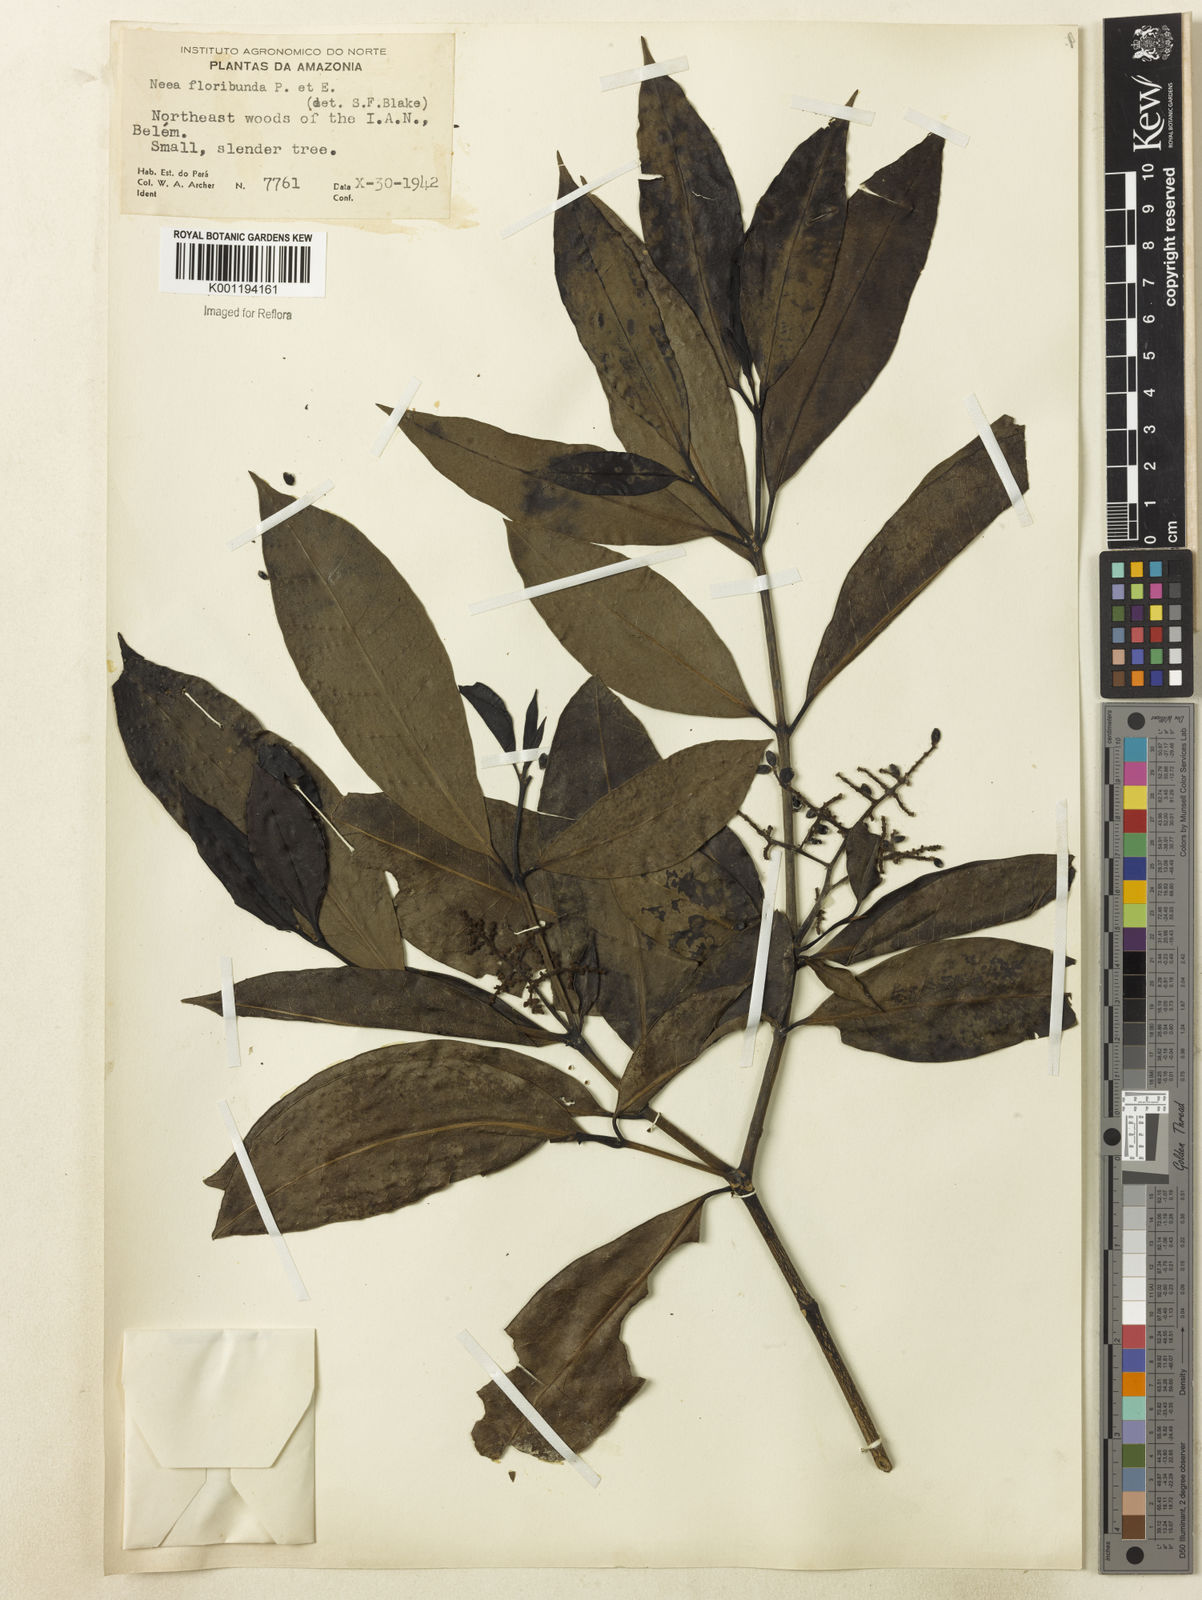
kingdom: Plantae
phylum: Tracheophyta
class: Magnoliopsida
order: Caryophyllales
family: Nyctaginaceae
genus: Neea
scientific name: Neea floribunda
